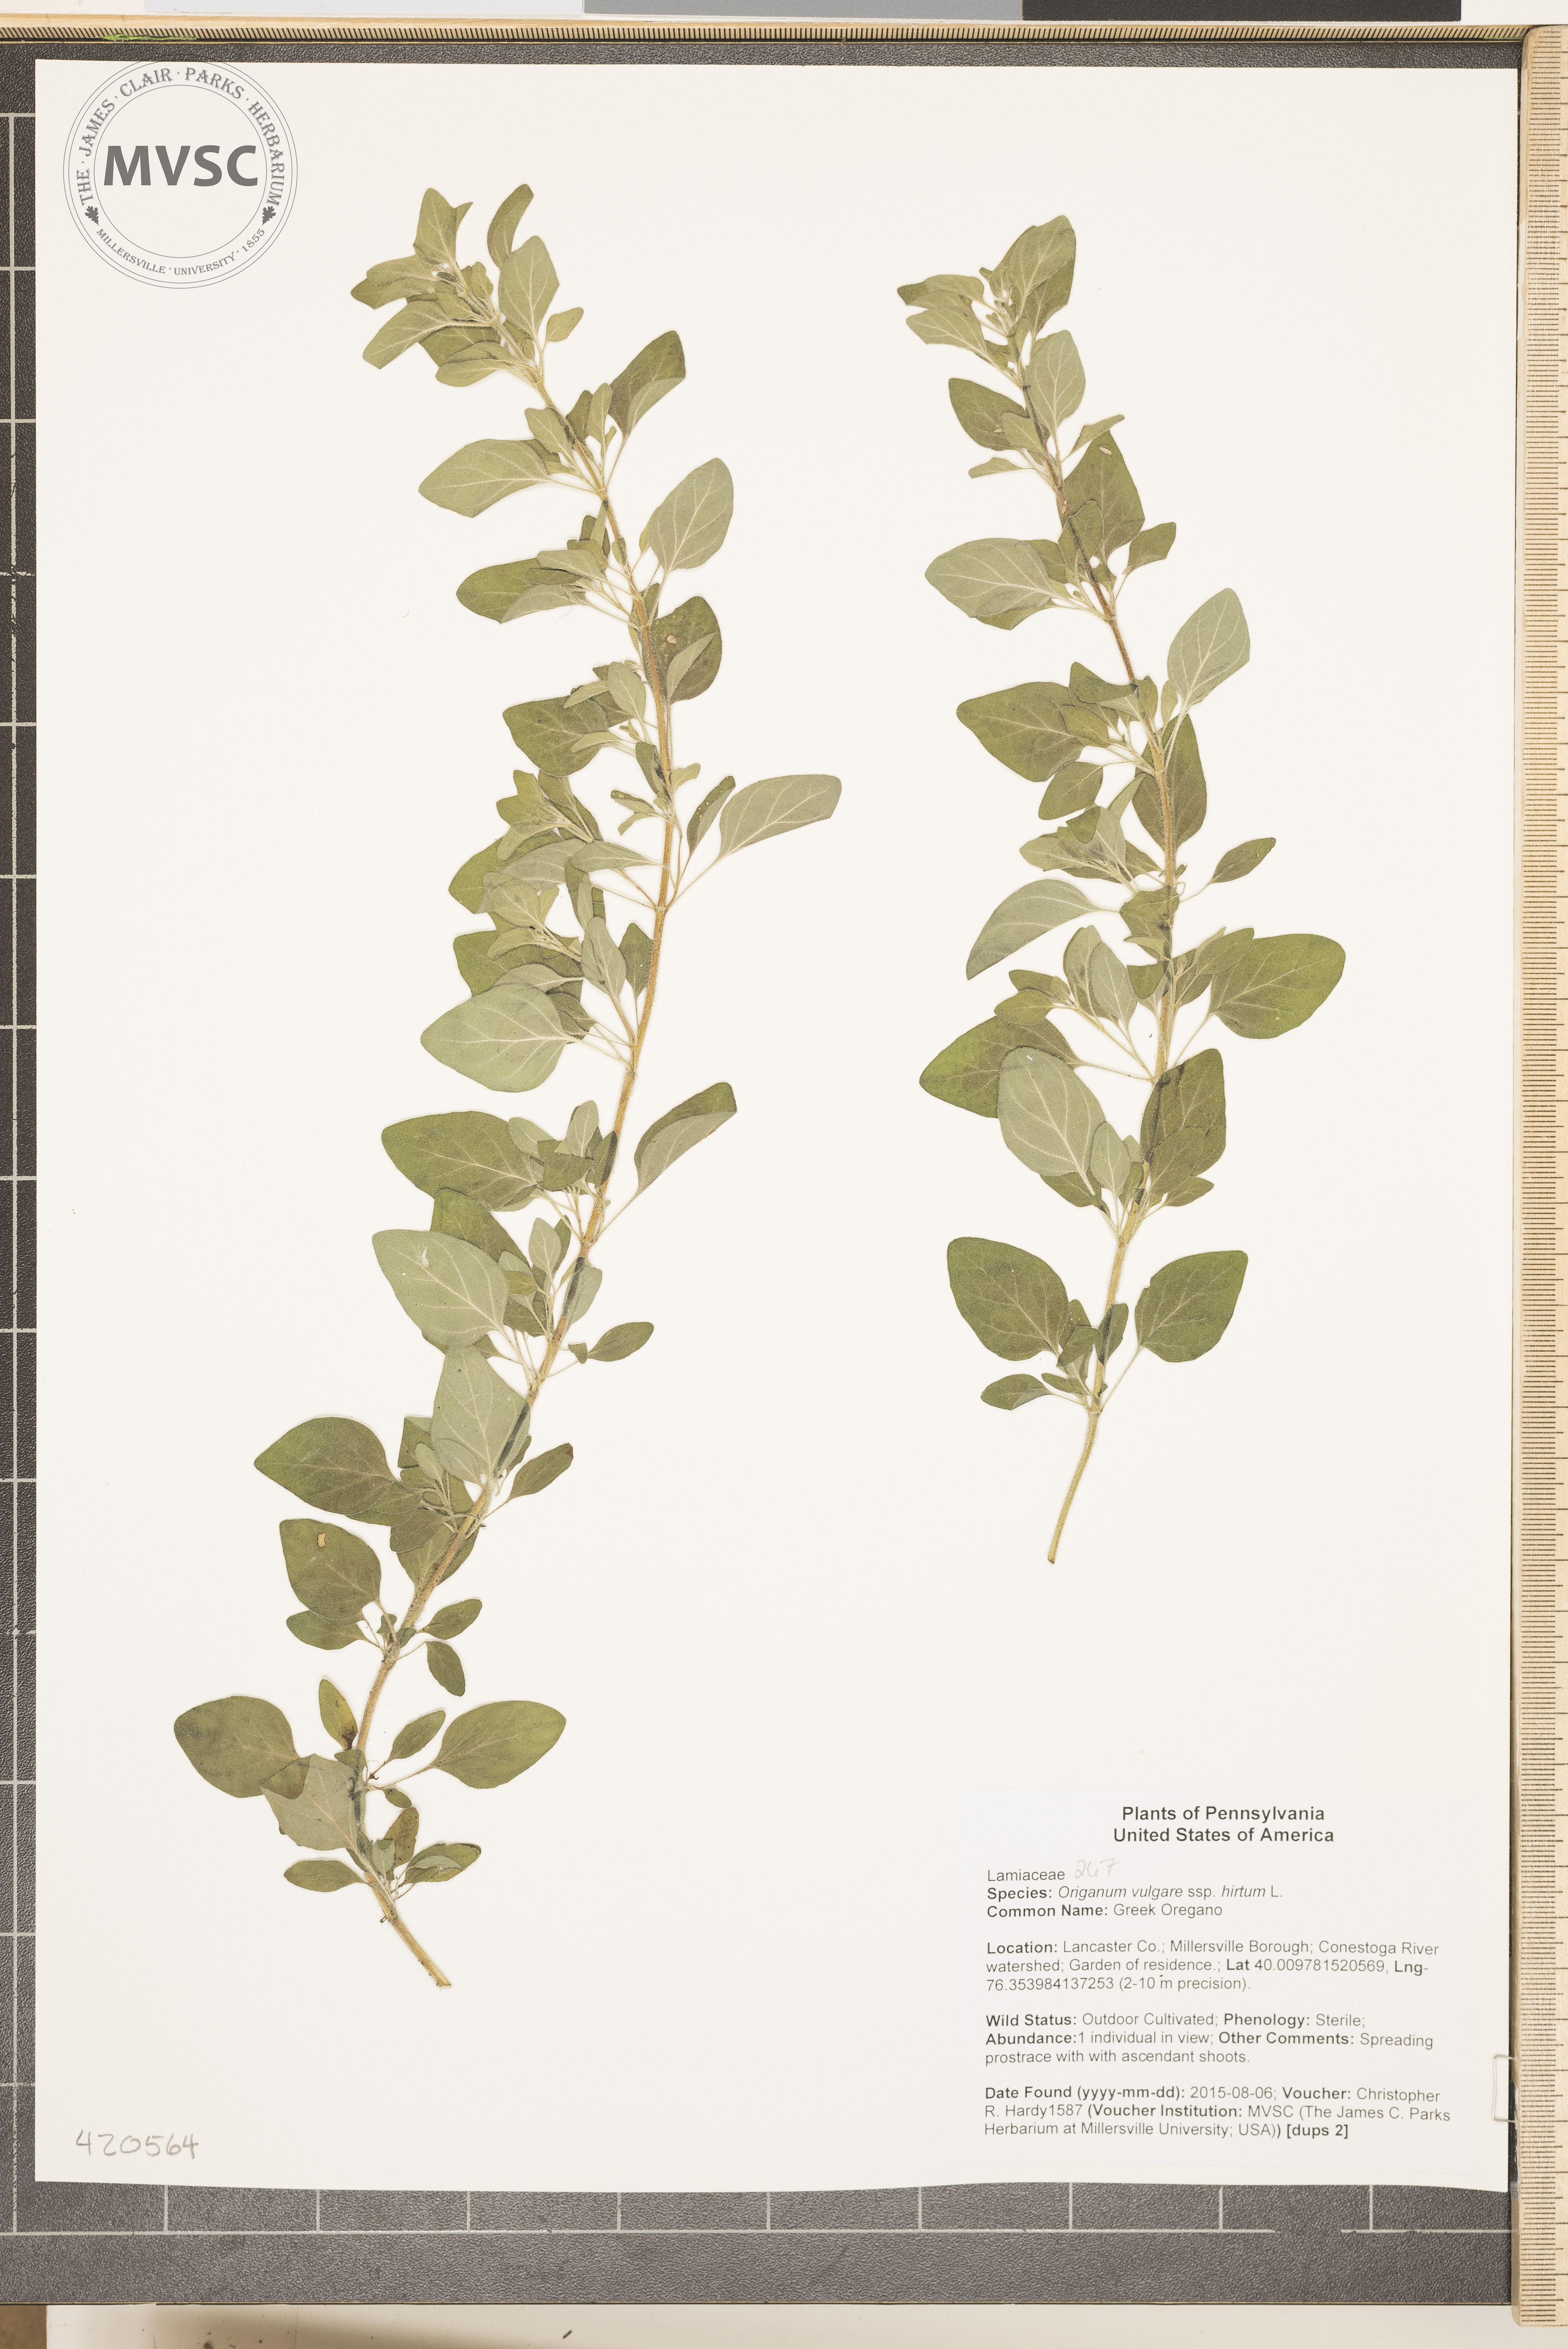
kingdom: Plantae
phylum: Tracheophyta
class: Magnoliopsida
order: Lamiales
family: Lamiaceae
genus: Origanum
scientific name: Origanum vulgare
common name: Greek Oregano
